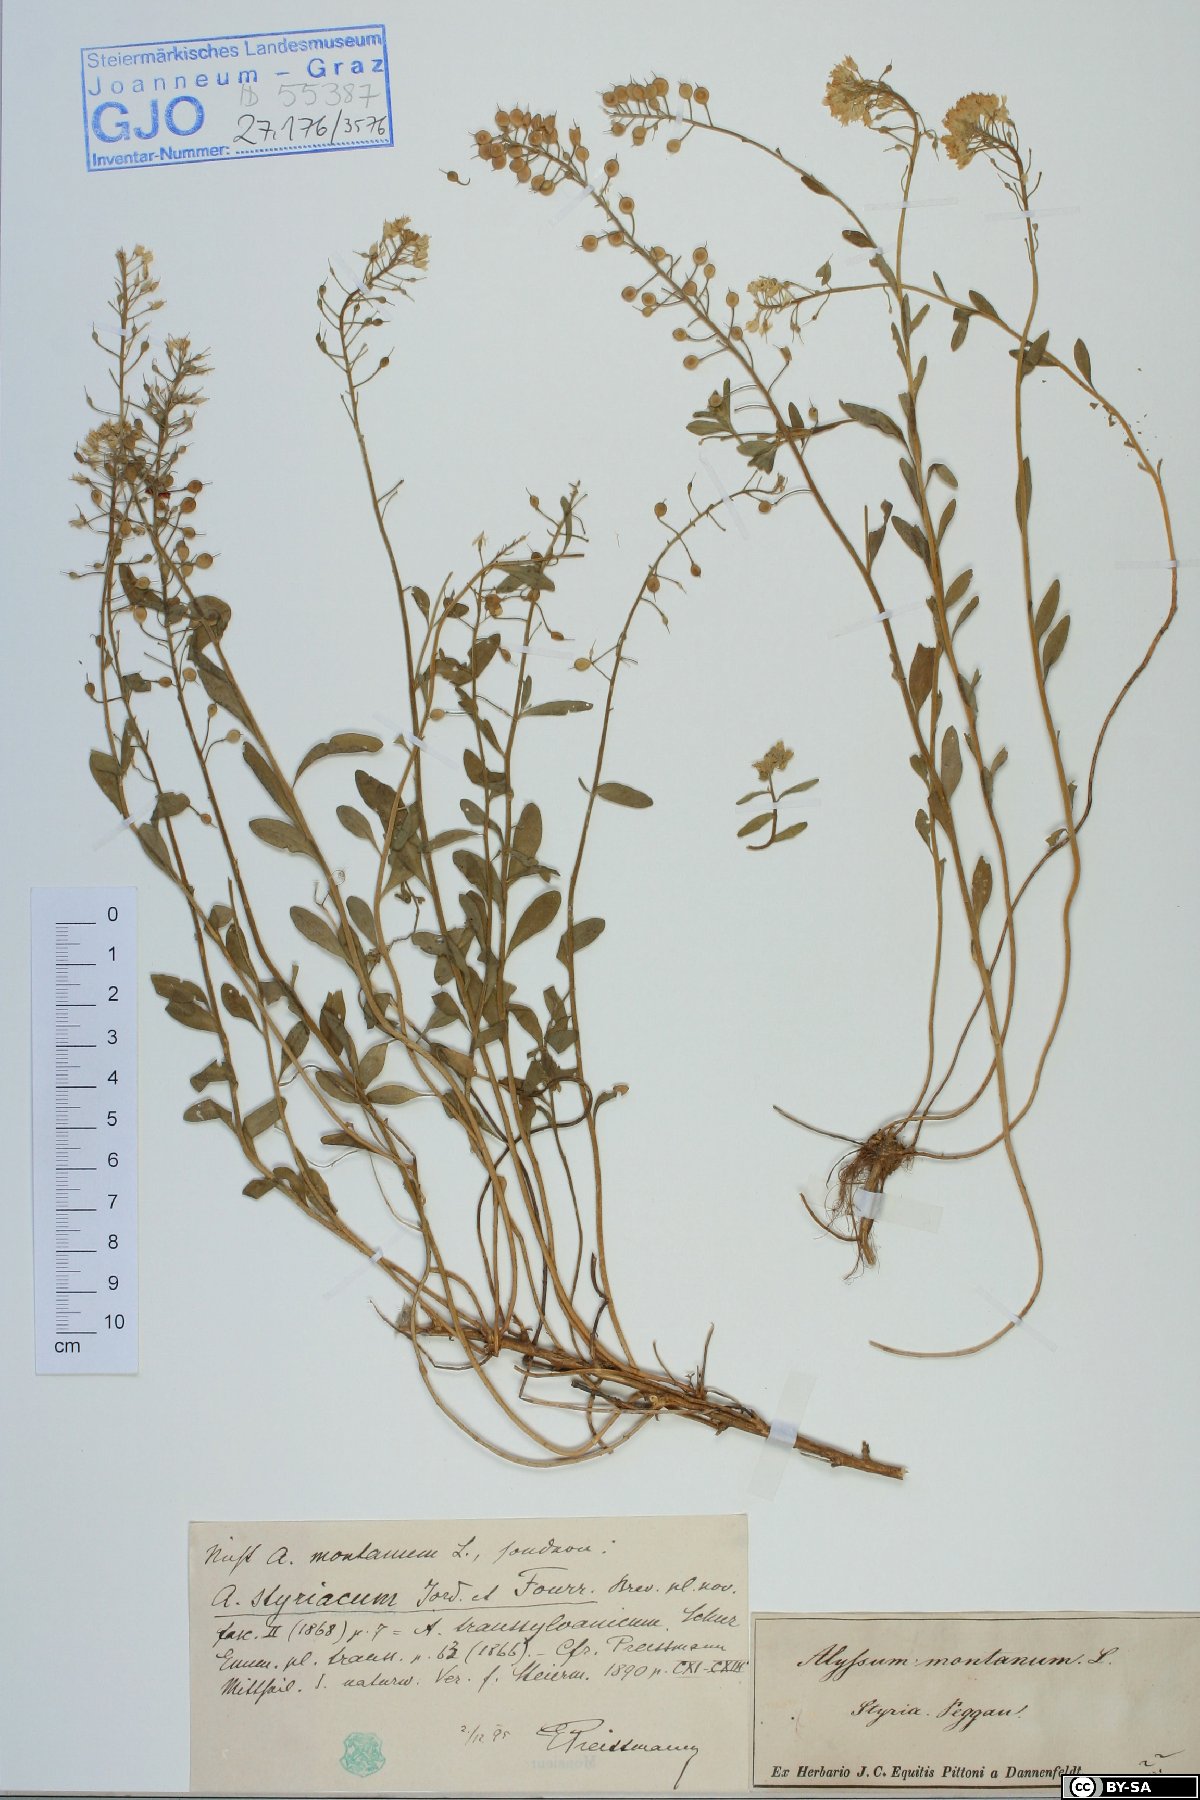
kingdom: Plantae
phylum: Tracheophyta
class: Magnoliopsida
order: Brassicales
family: Brassicaceae
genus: Alyssum
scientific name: Alyssum repens
